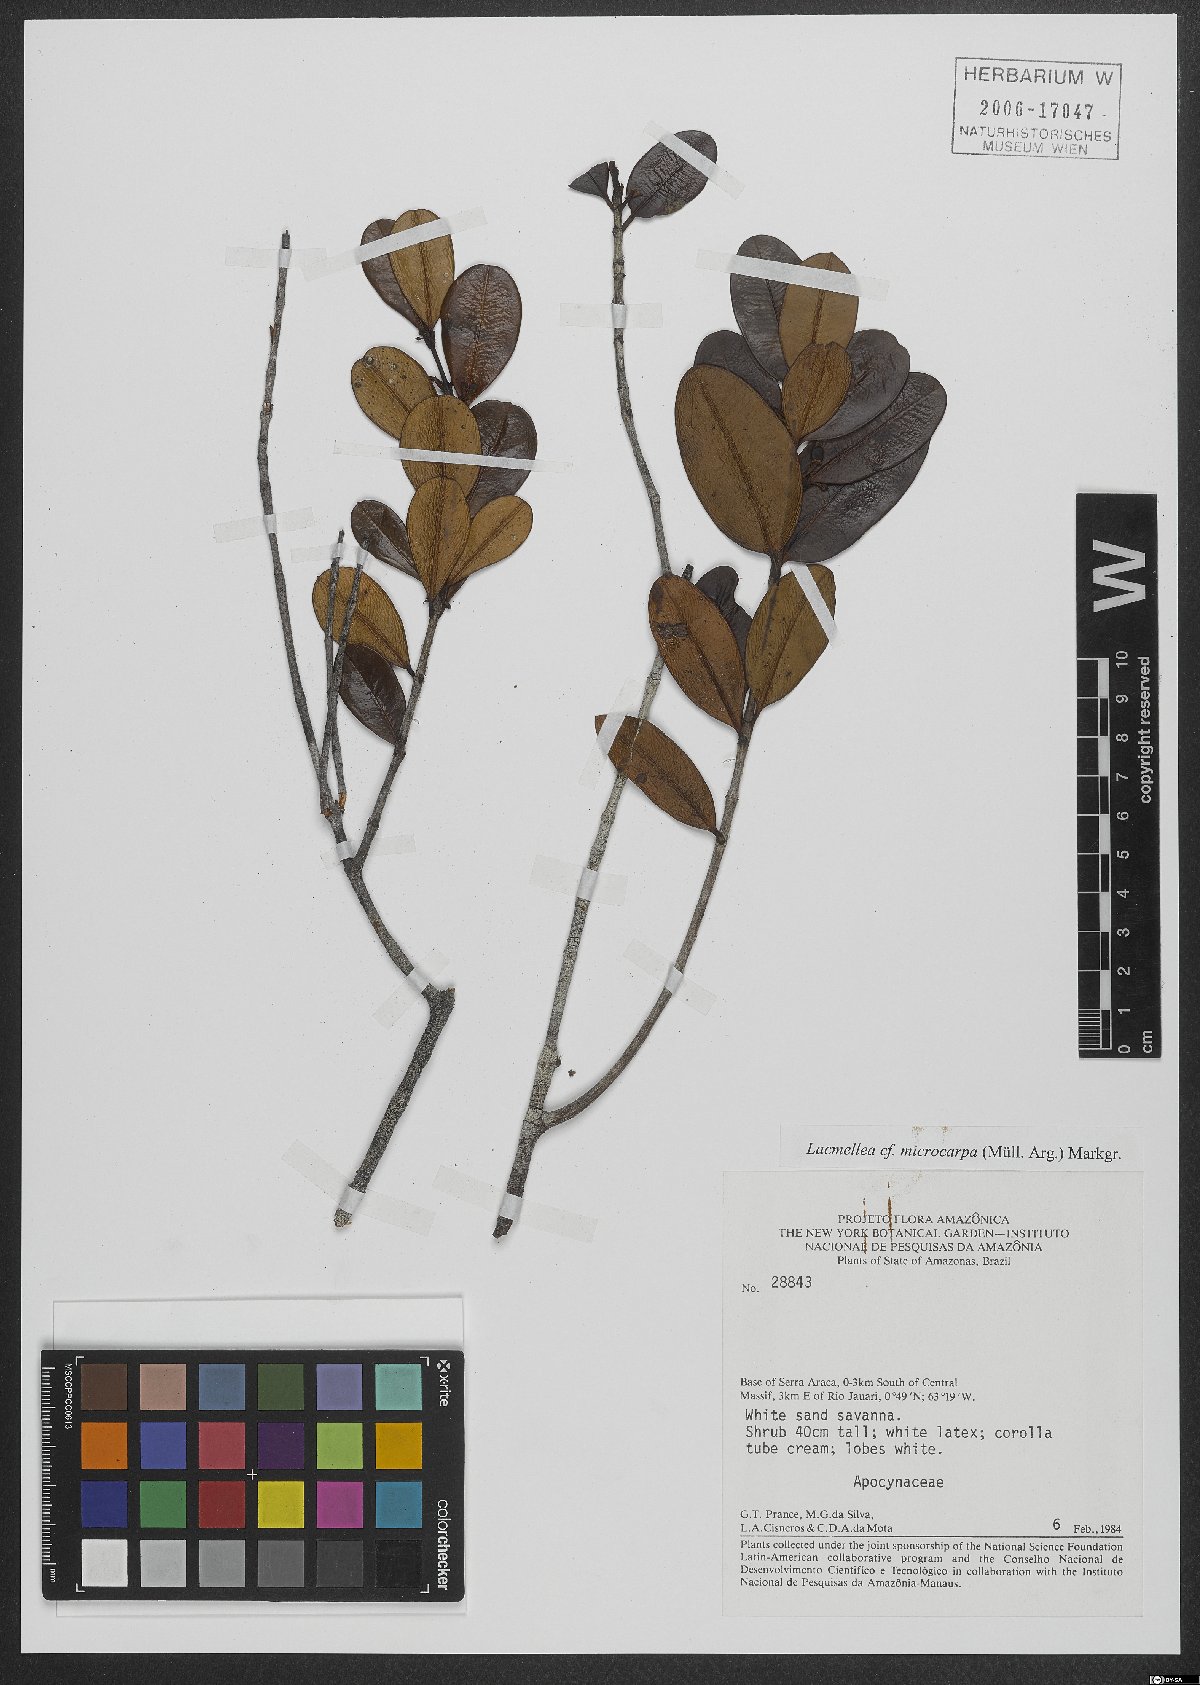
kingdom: Plantae
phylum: Tracheophyta
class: Magnoliopsida
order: Gentianales
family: Apocynaceae
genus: Lacmellea
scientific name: Lacmellea microcarpa
